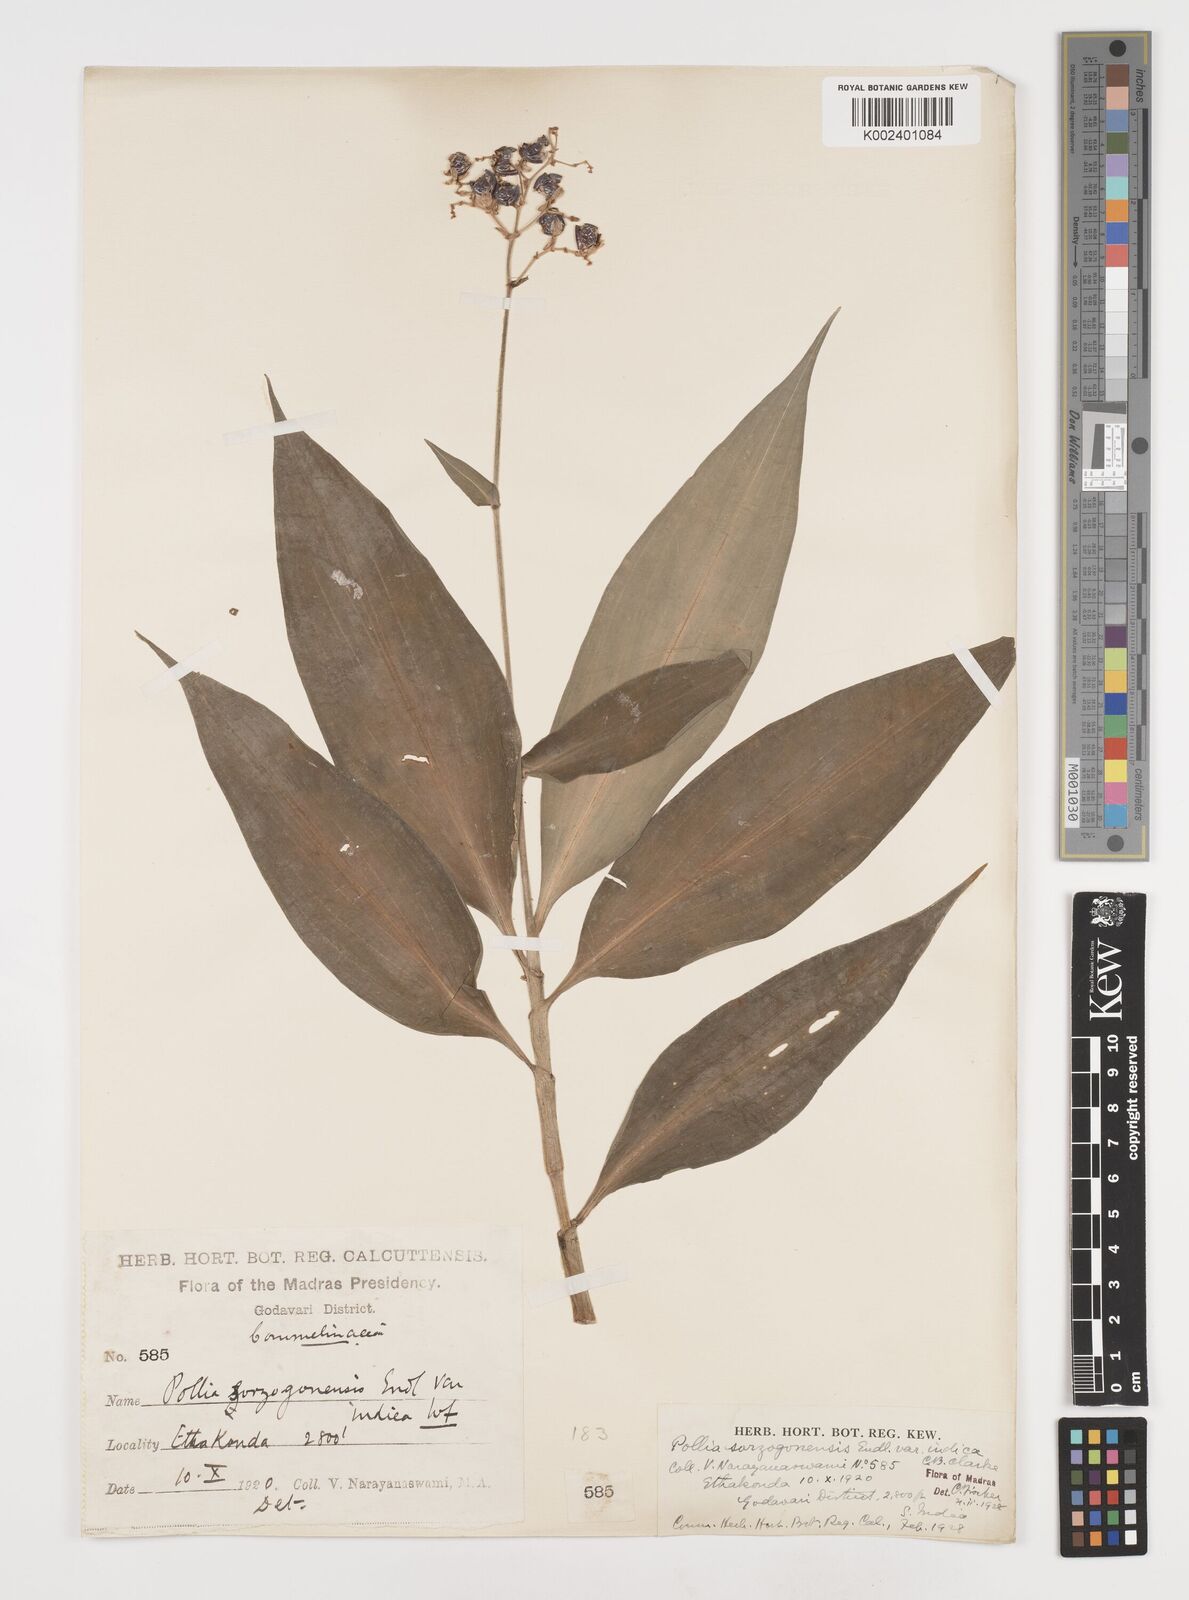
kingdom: Plantae
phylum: Tracheophyta
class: Liliopsida
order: Commelinales
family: Commelinaceae
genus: Pollia
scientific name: Pollia secundiflora
